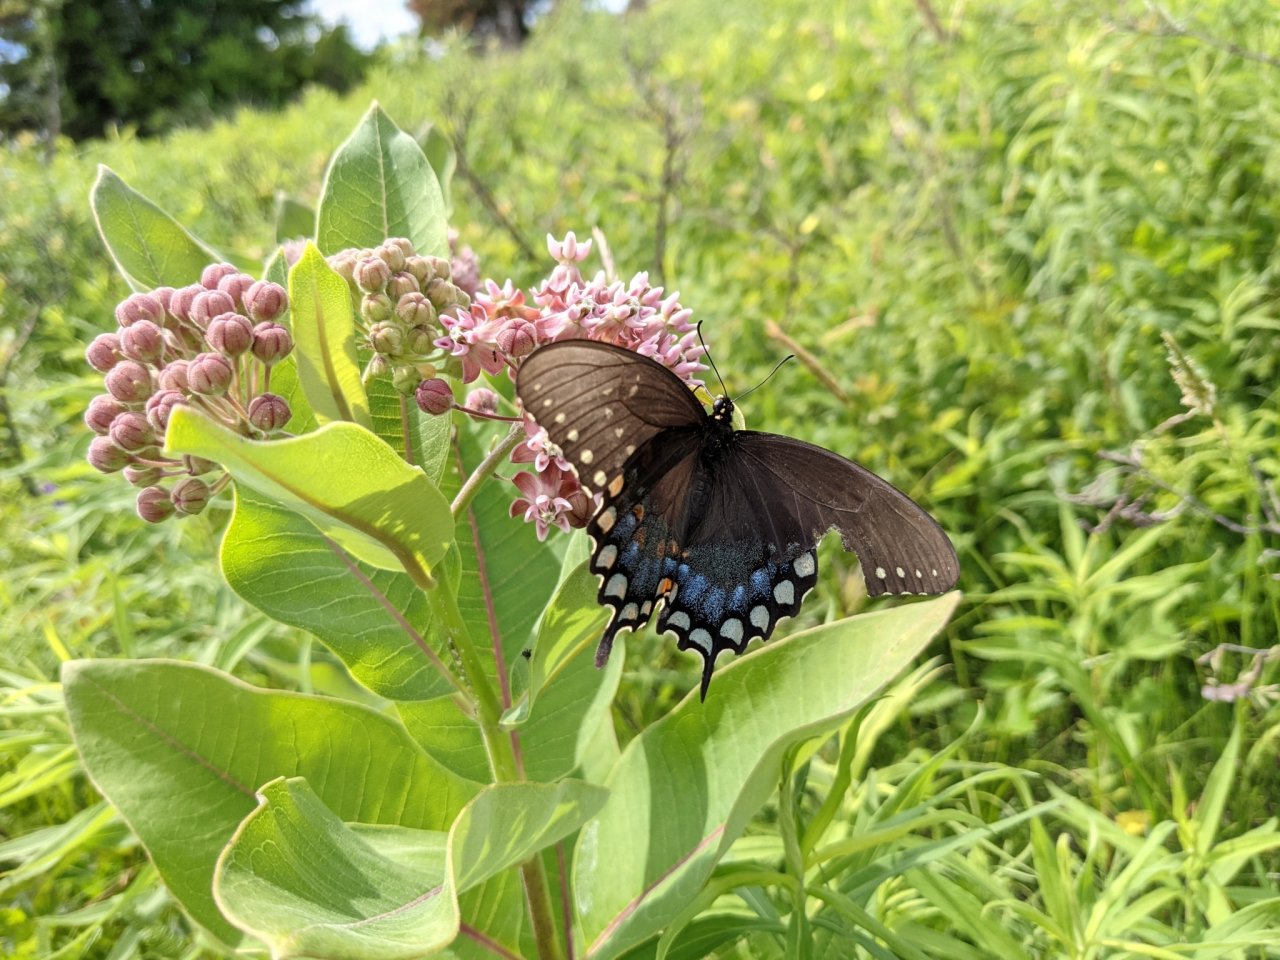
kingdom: Animalia
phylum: Arthropoda
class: Insecta
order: Lepidoptera
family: Papilionidae
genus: Pterourus
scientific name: Pterourus troilus
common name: Spicebush Swallowtail
